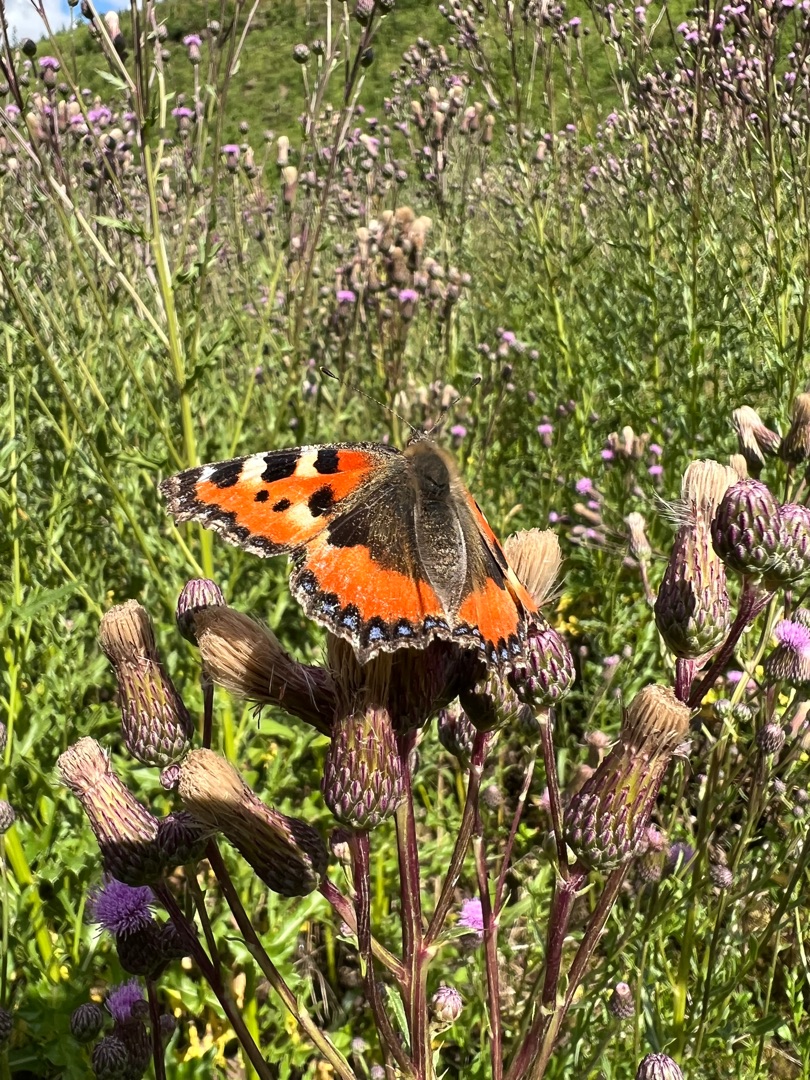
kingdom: Animalia
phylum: Arthropoda
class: Insecta
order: Lepidoptera
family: Nymphalidae
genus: Aglais
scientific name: Aglais urticae
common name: Nældens takvinge
